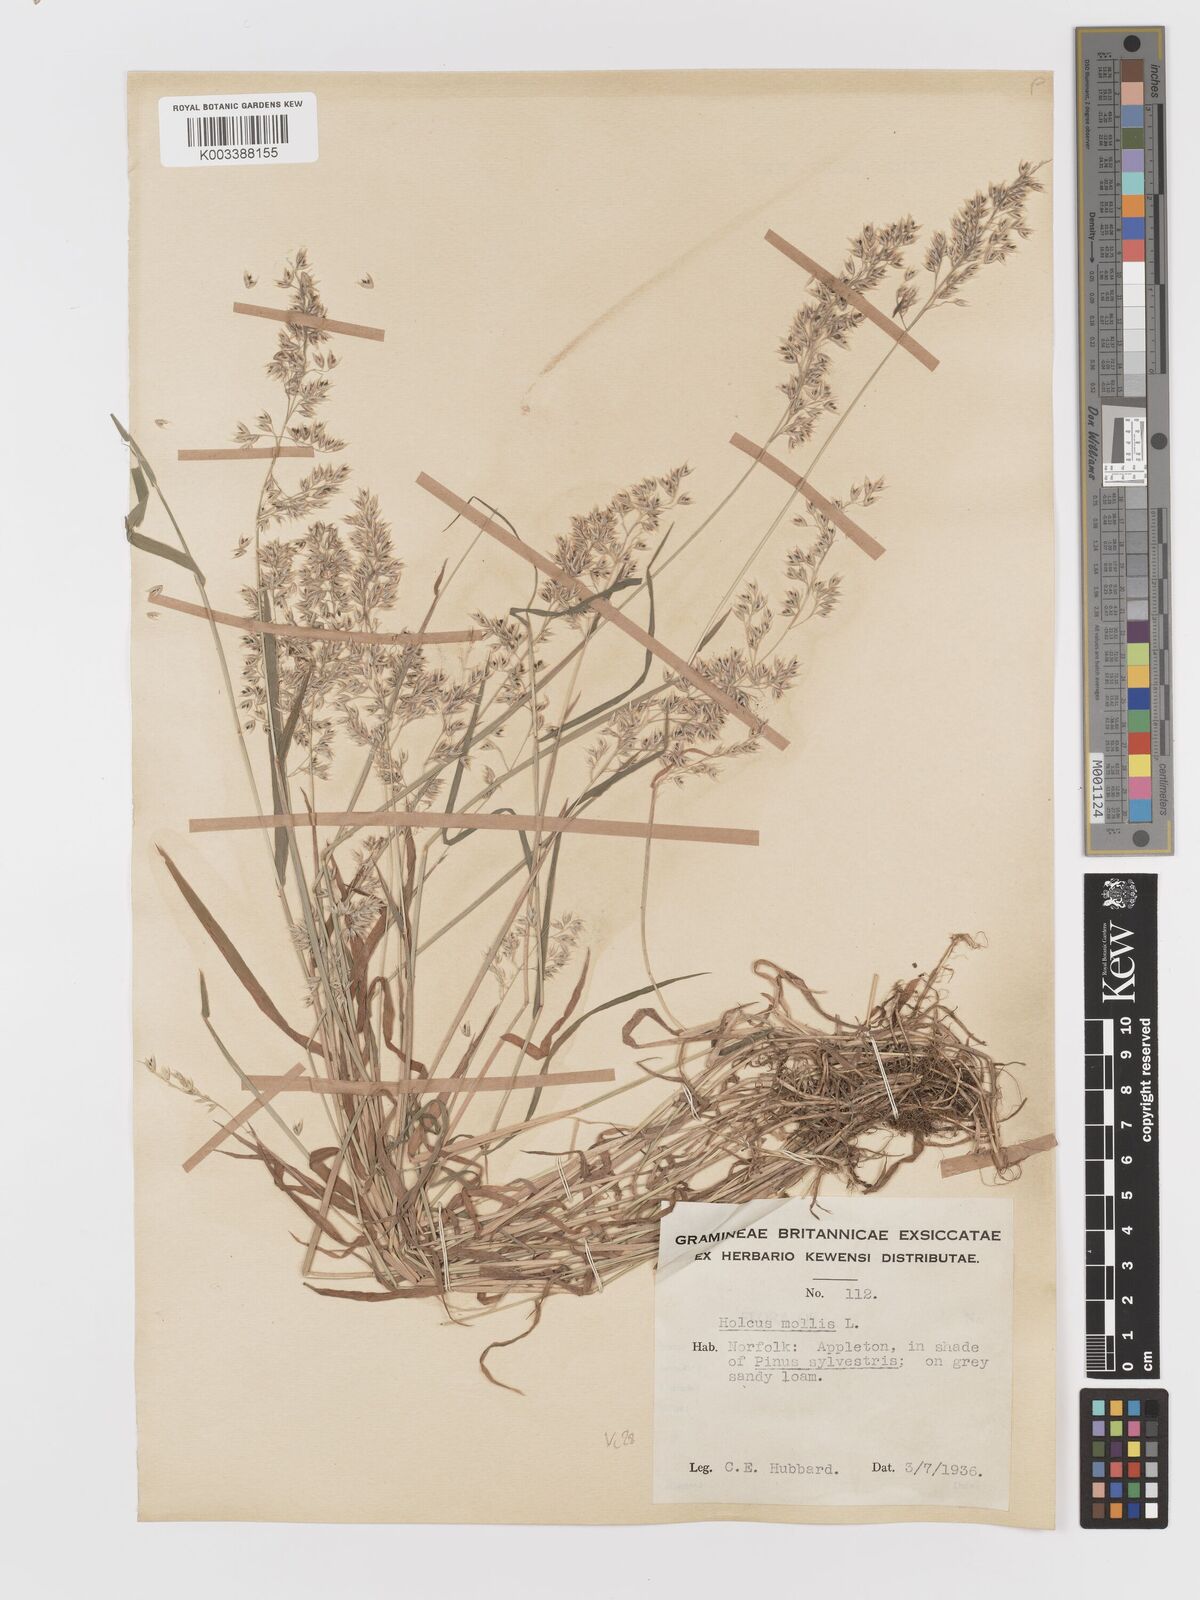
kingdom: Plantae
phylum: Tracheophyta
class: Liliopsida
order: Poales
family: Poaceae
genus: Holcus
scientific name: Holcus mollis
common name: Creeping velvetgrass
